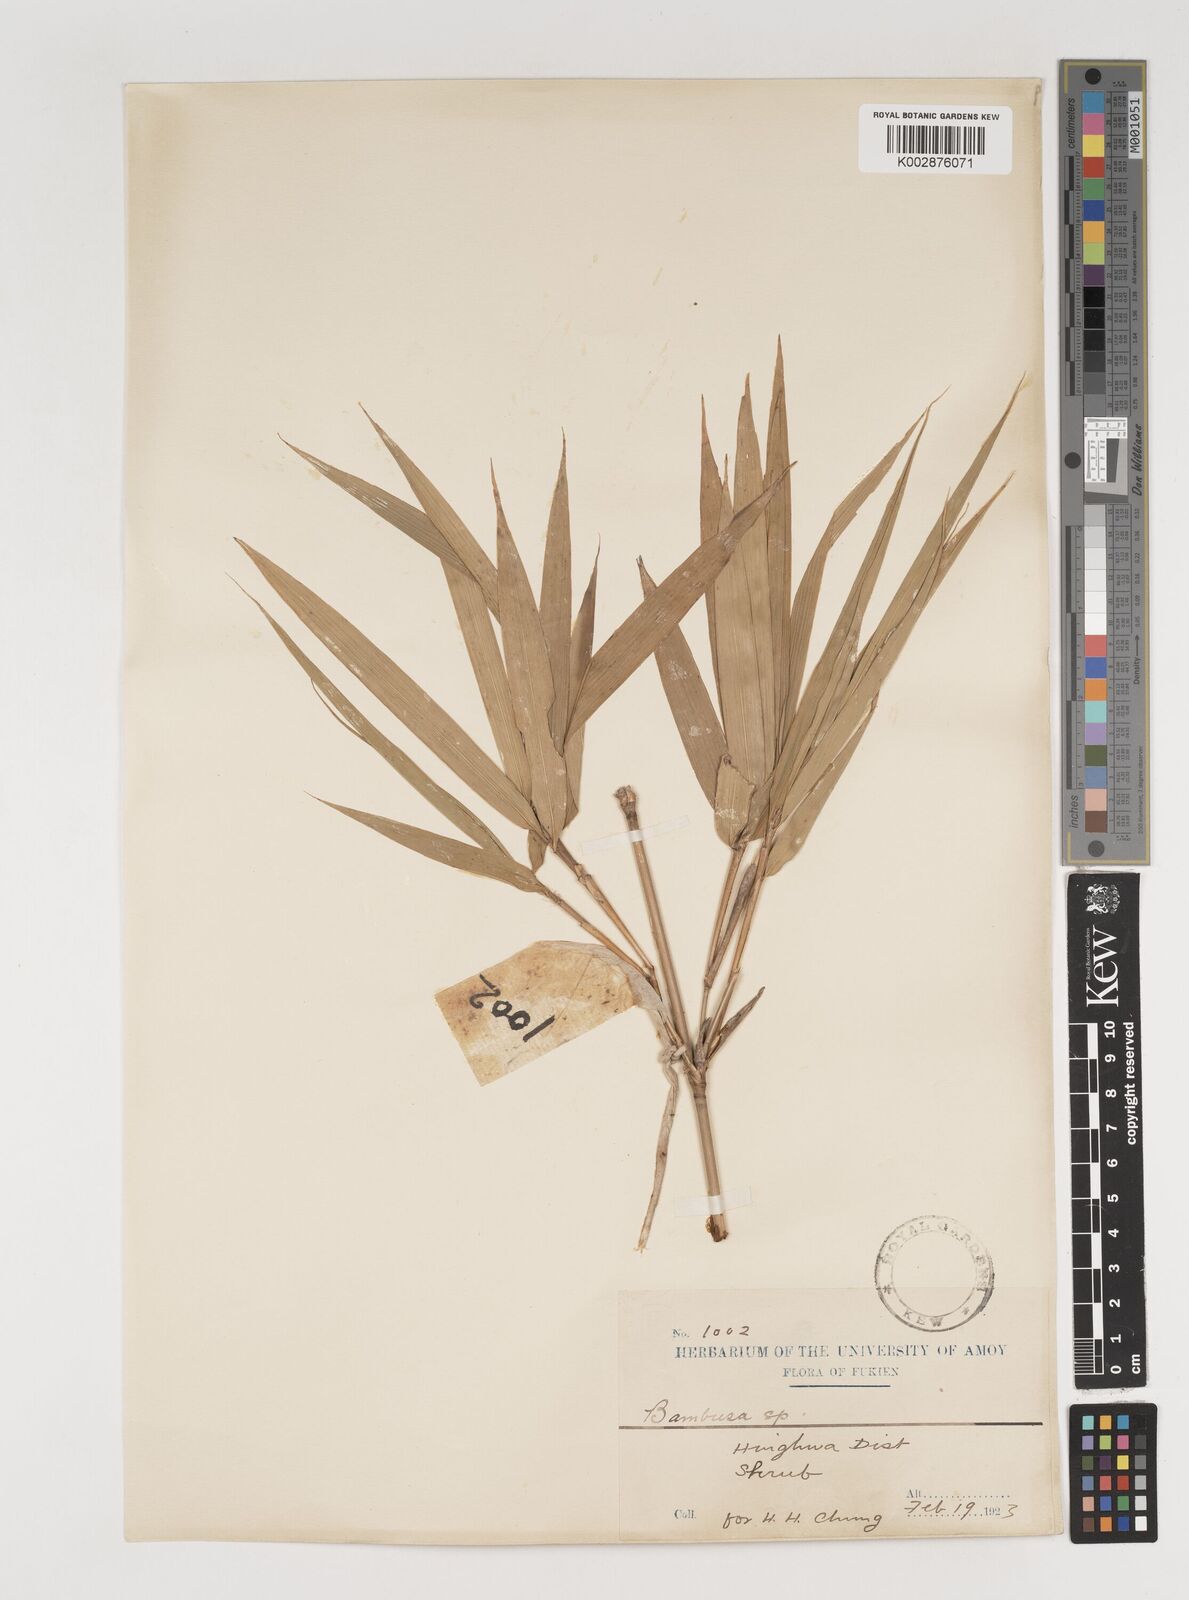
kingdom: Plantae
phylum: Tracheophyta
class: Liliopsida
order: Poales
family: Poaceae
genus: Bambusa
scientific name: Bambusa
